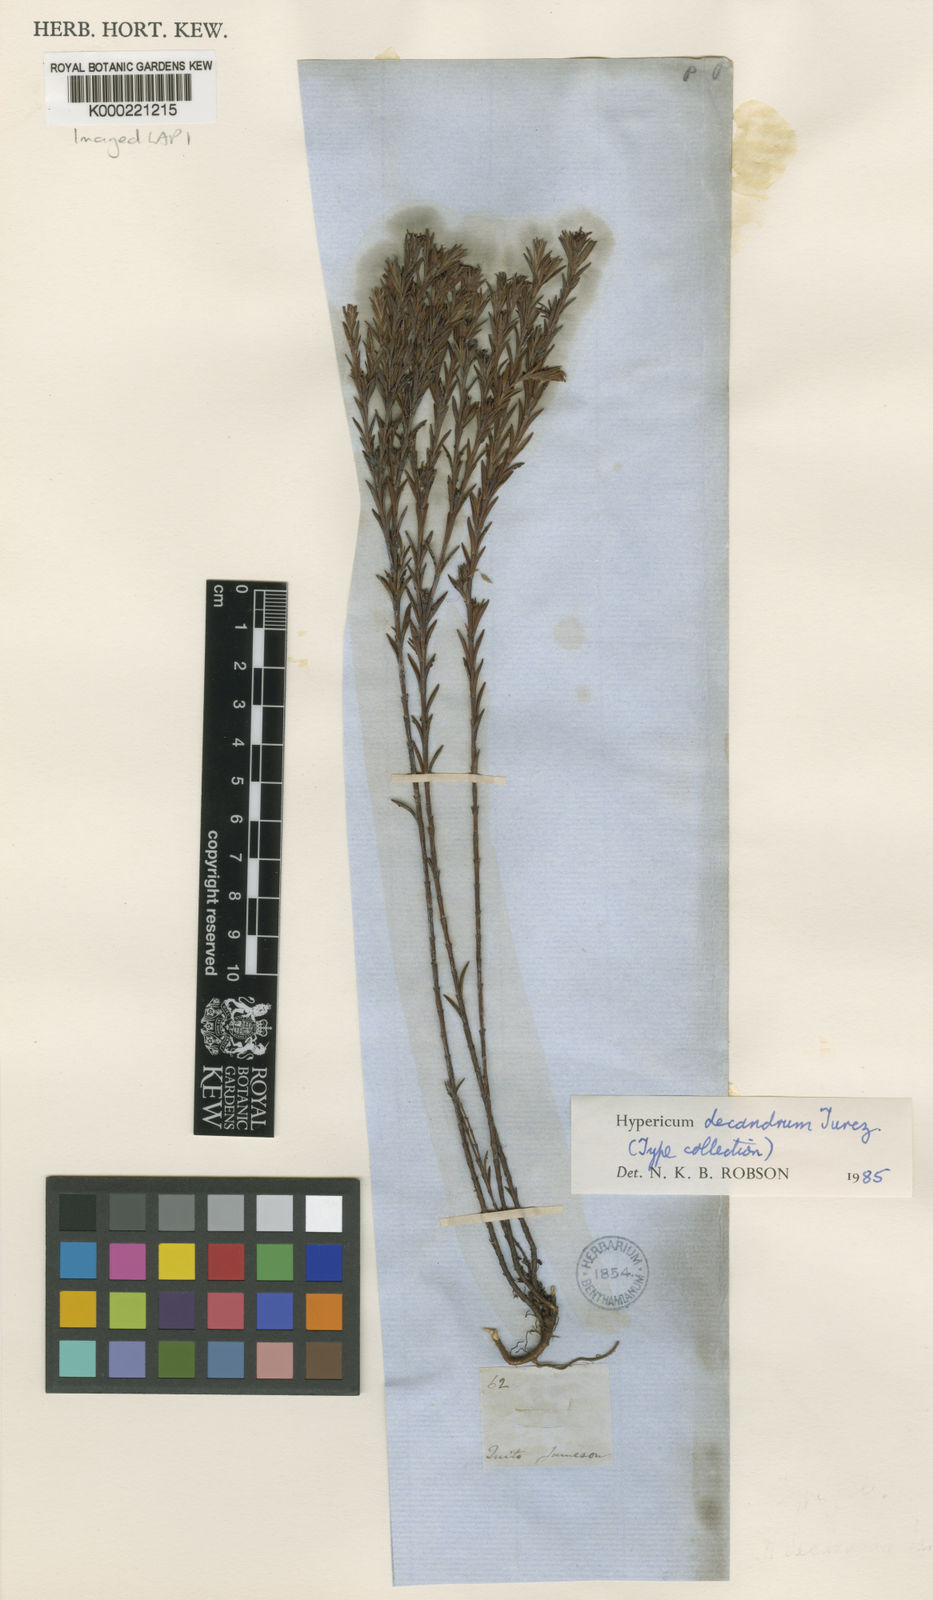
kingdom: Plantae
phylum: Tracheophyta
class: Magnoliopsida
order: Malpighiales
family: Hypericaceae
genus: Hypericum
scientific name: Hypericum decandrum
